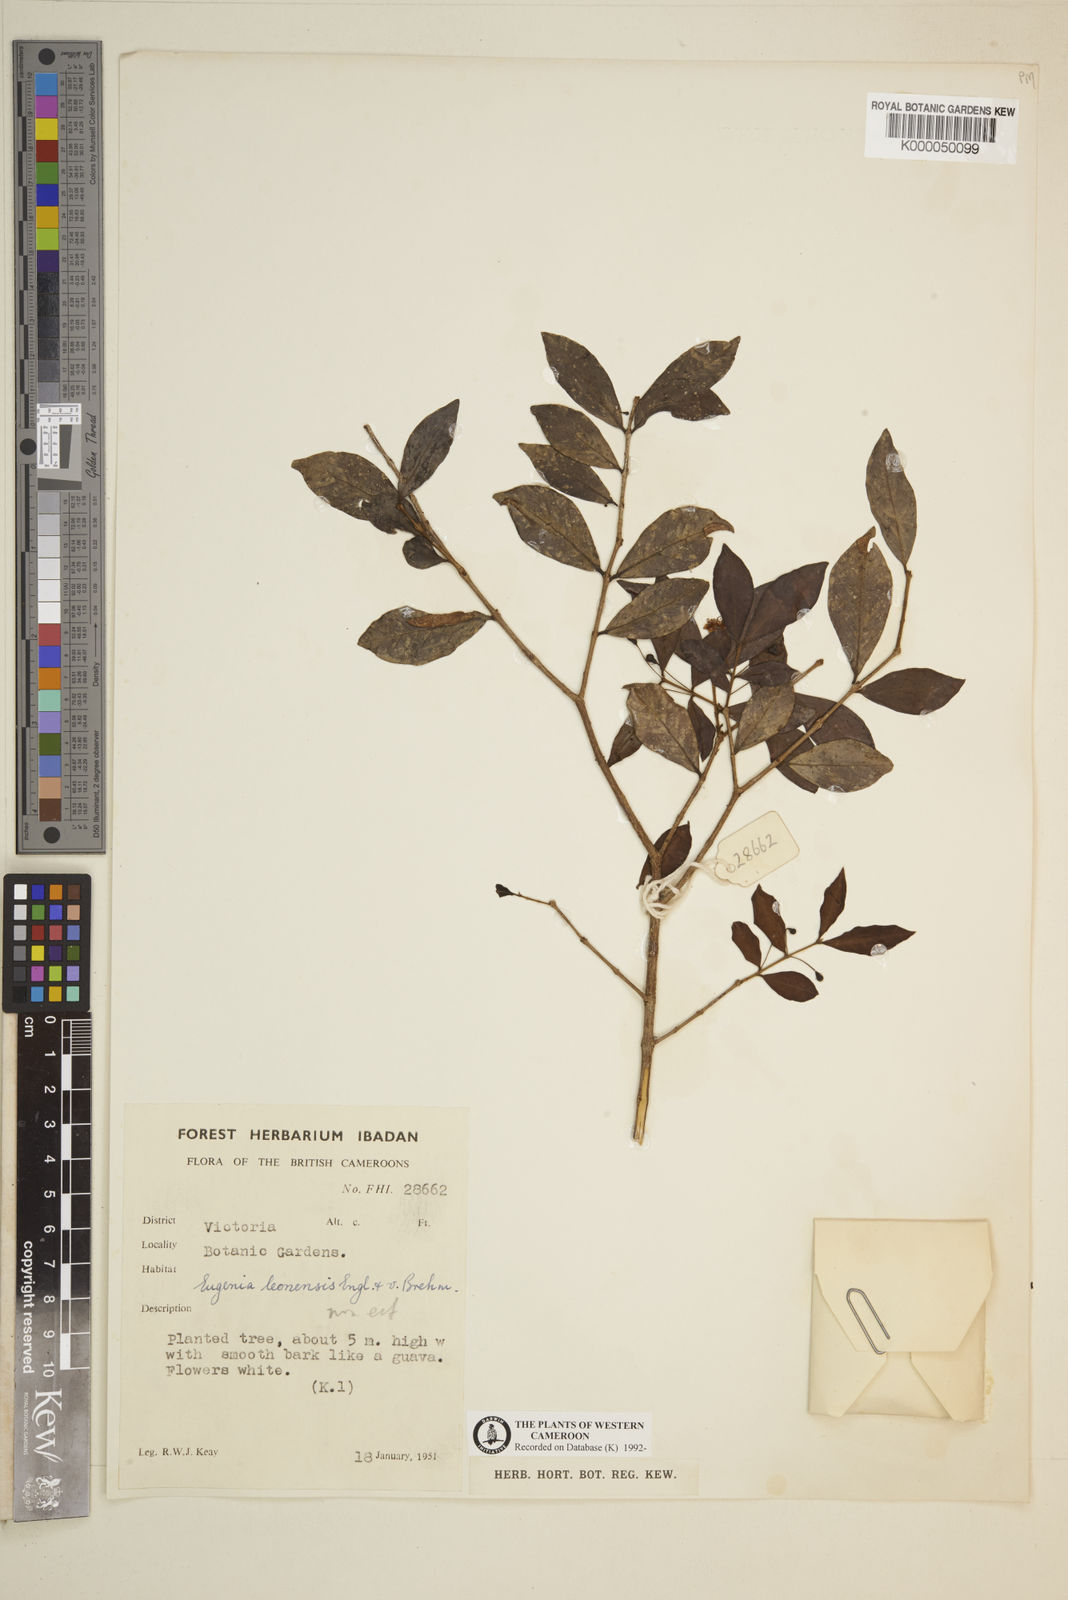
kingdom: Plantae
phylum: Tracheophyta
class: Magnoliopsida
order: Myrtales
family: Myrtaceae
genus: Eugenia
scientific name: Eugenia leonensis
